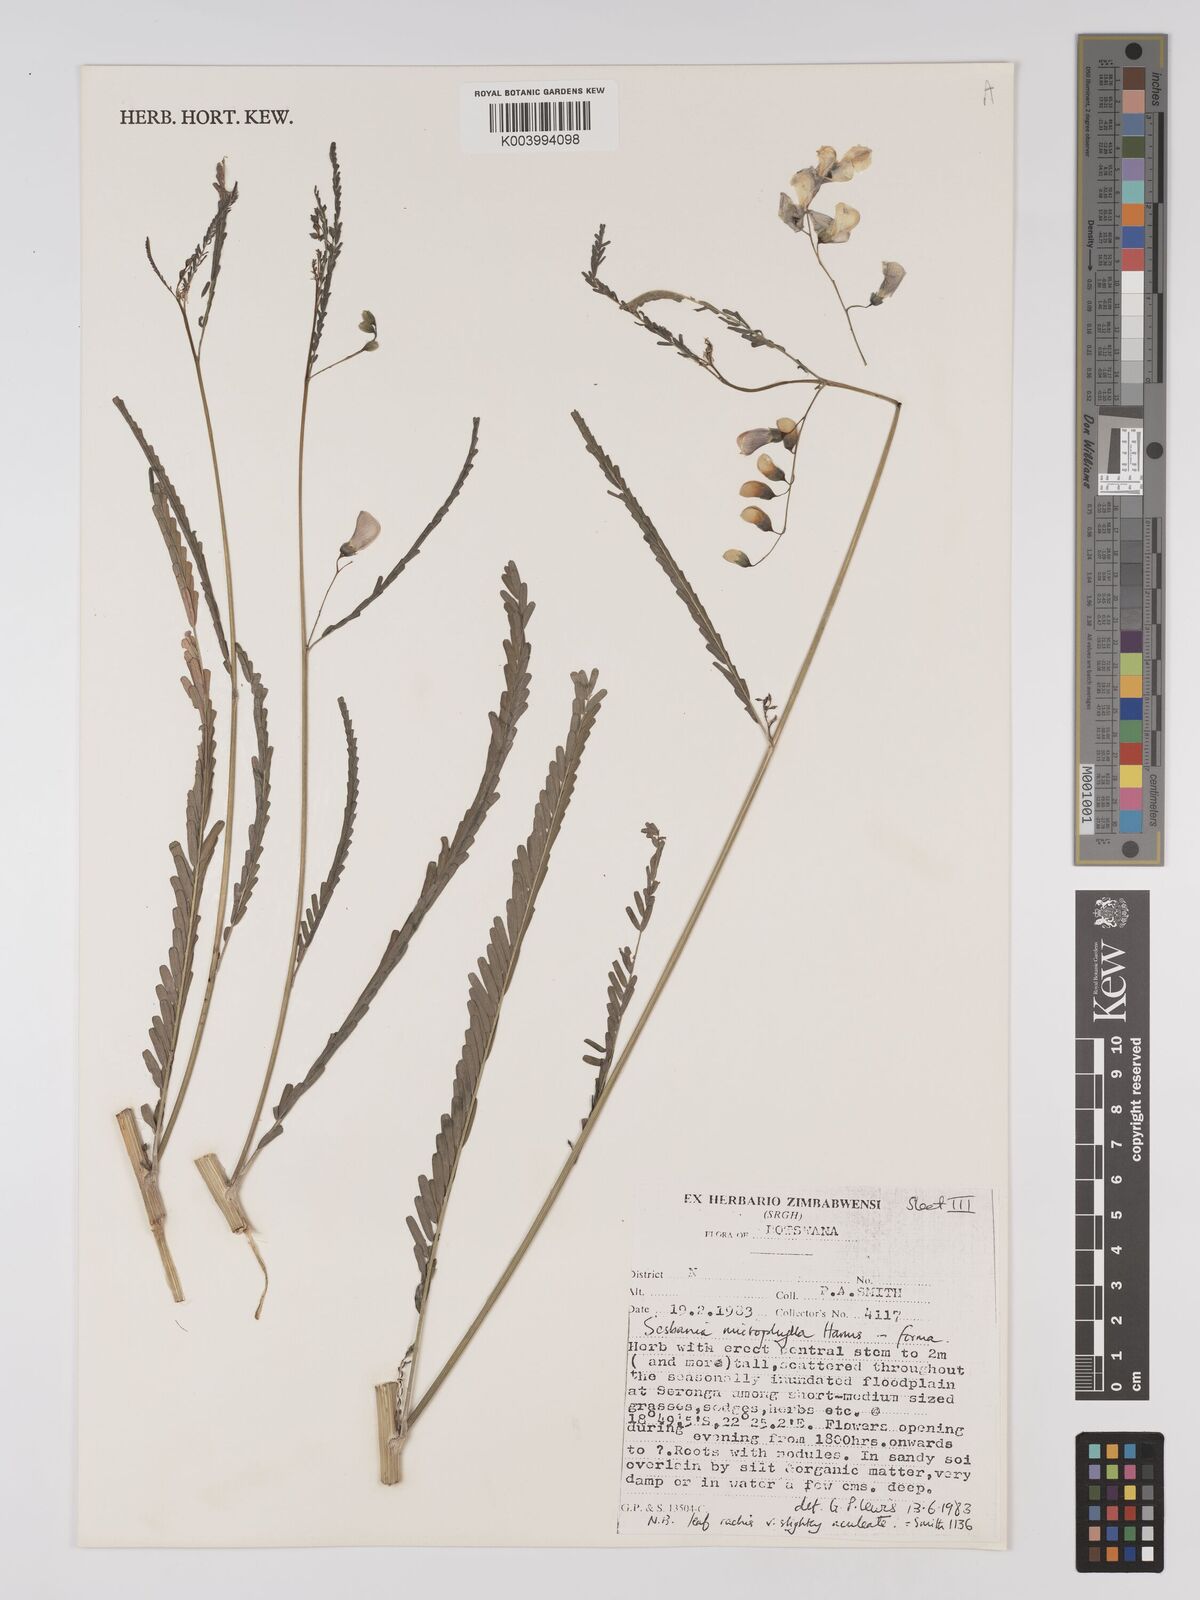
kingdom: Plantae
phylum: Tracheophyta
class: Magnoliopsida
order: Fabales
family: Fabaceae
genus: Sesbania
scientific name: Sesbania microphylla
